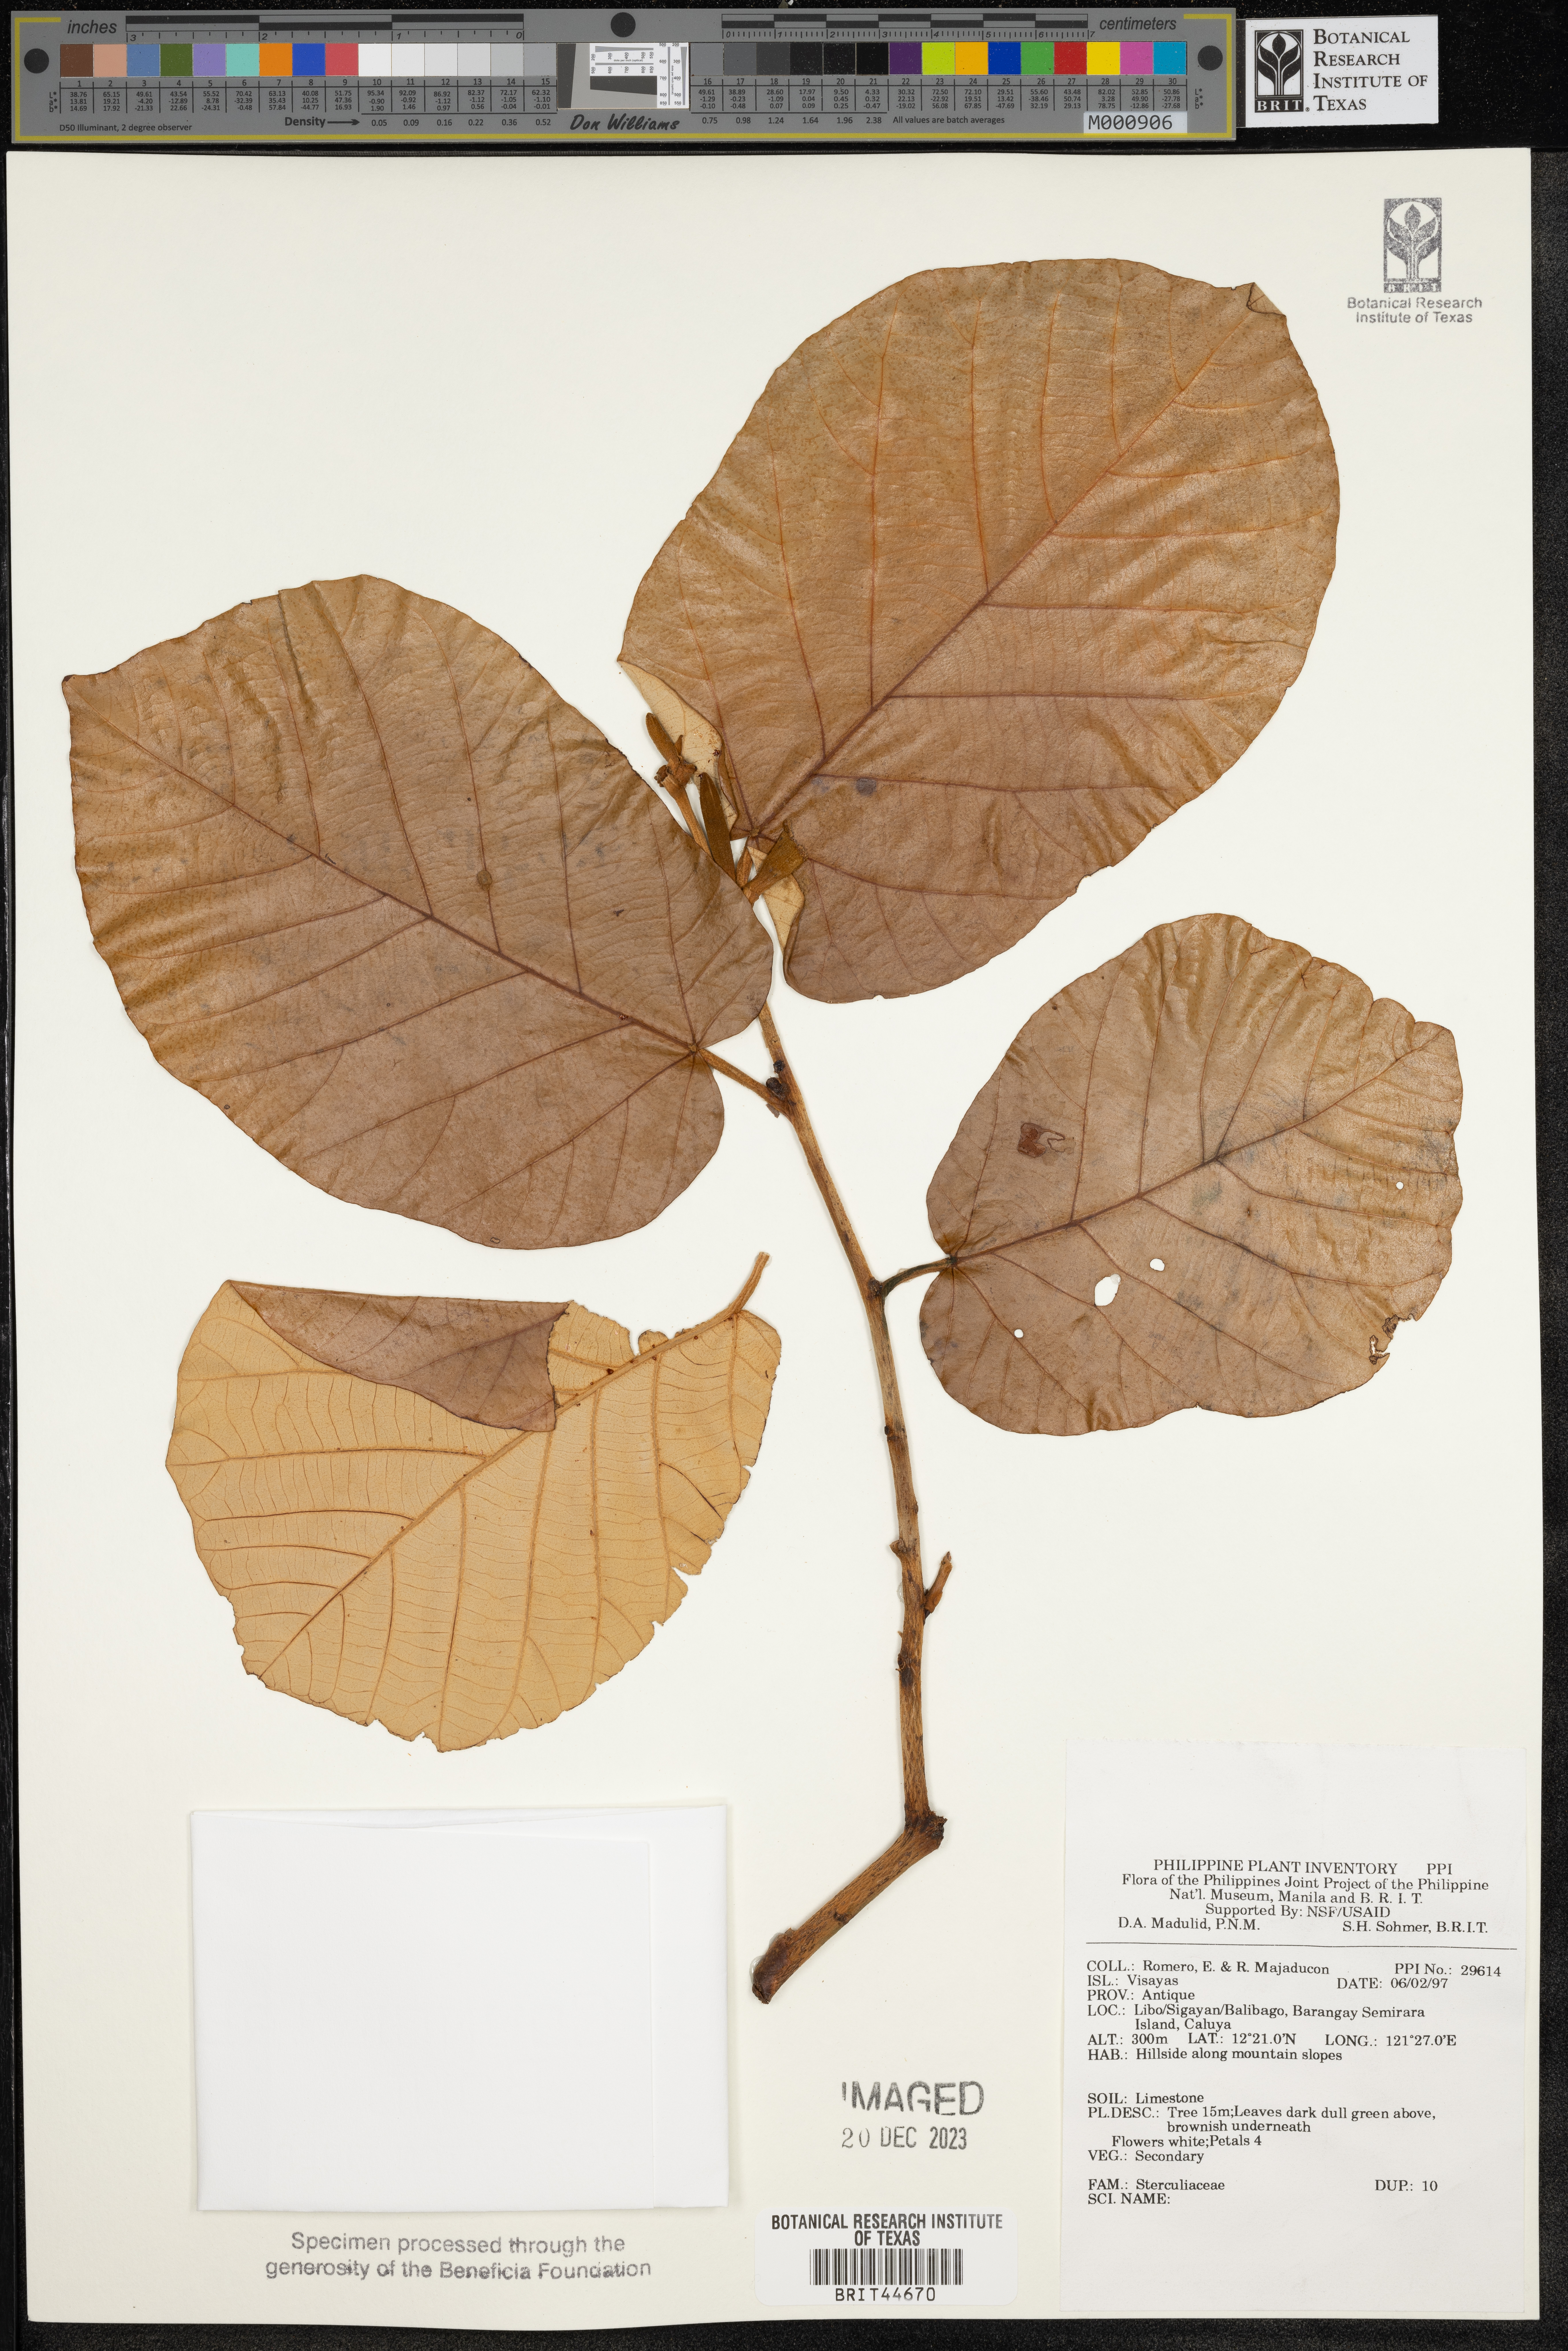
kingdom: Plantae
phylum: Tracheophyta
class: Magnoliopsida
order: Malvales
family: Sterculiaceae
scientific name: Sterculiaceae
